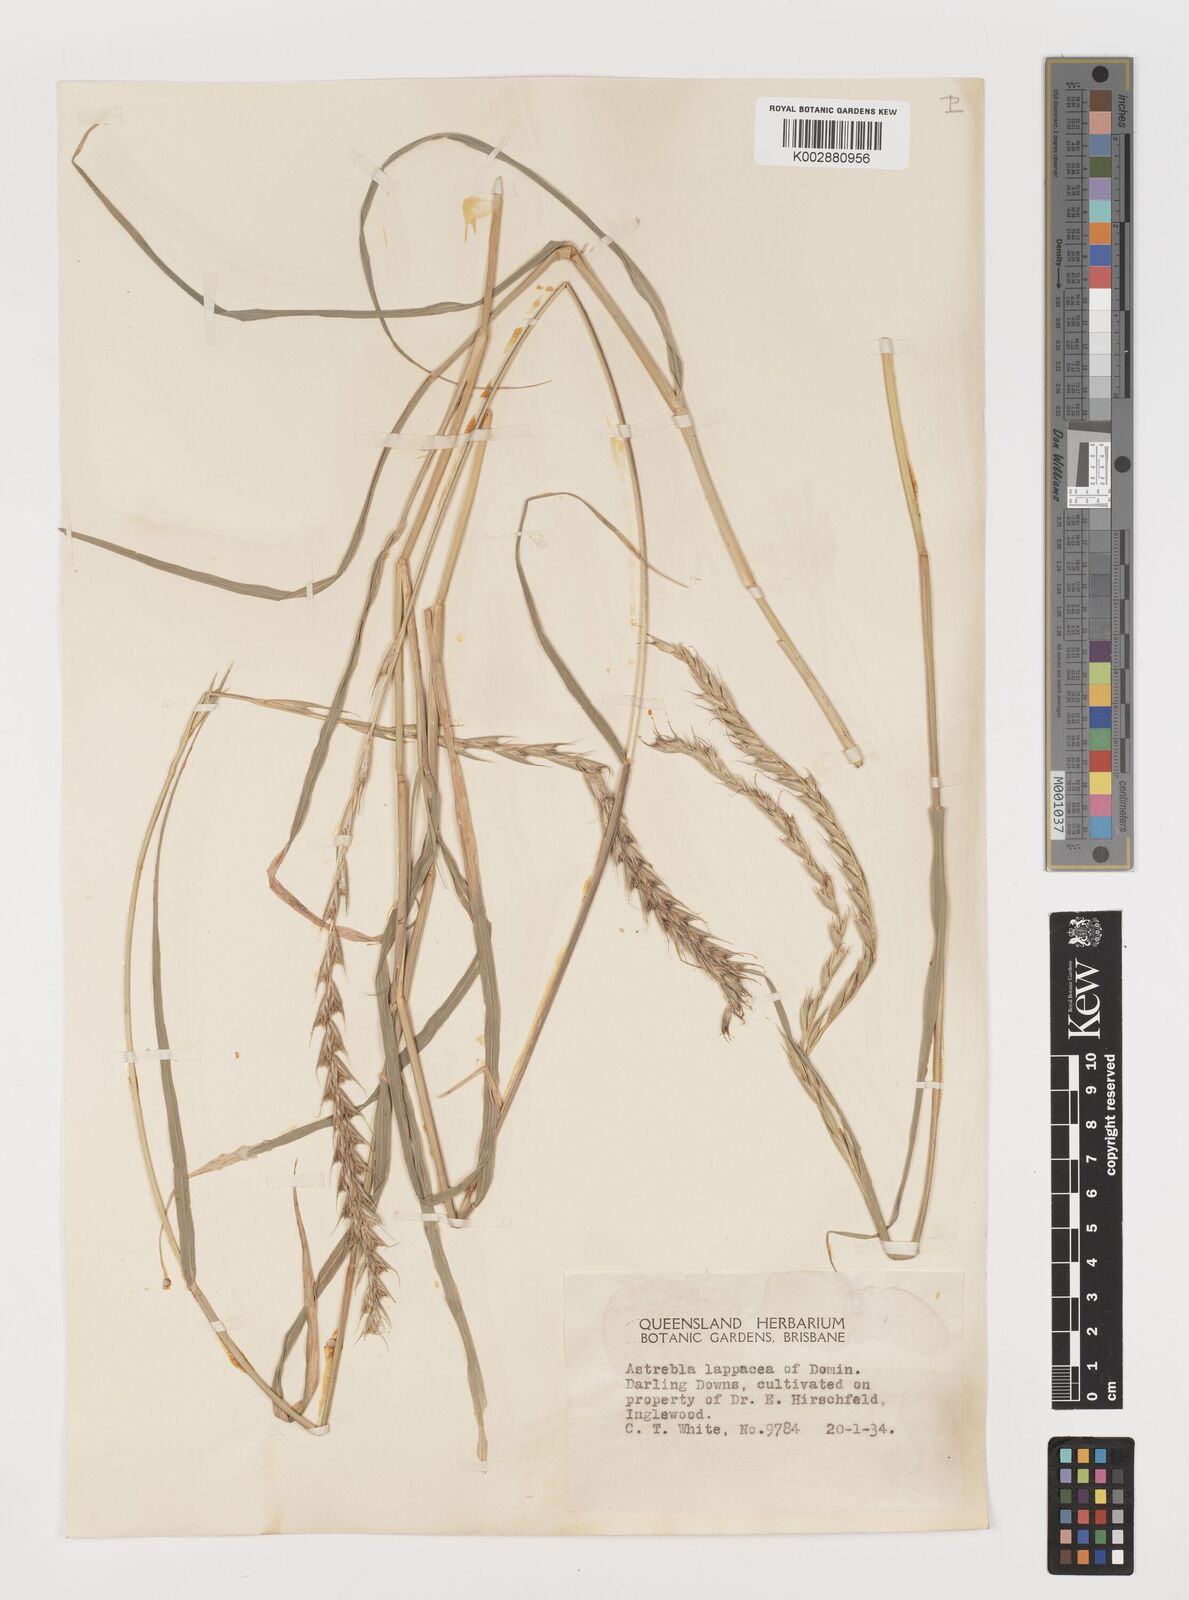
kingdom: Plantae
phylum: Tracheophyta
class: Liliopsida
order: Poales
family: Poaceae
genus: Astrebla
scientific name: Astrebla lappacea
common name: Curly mitchell grass
